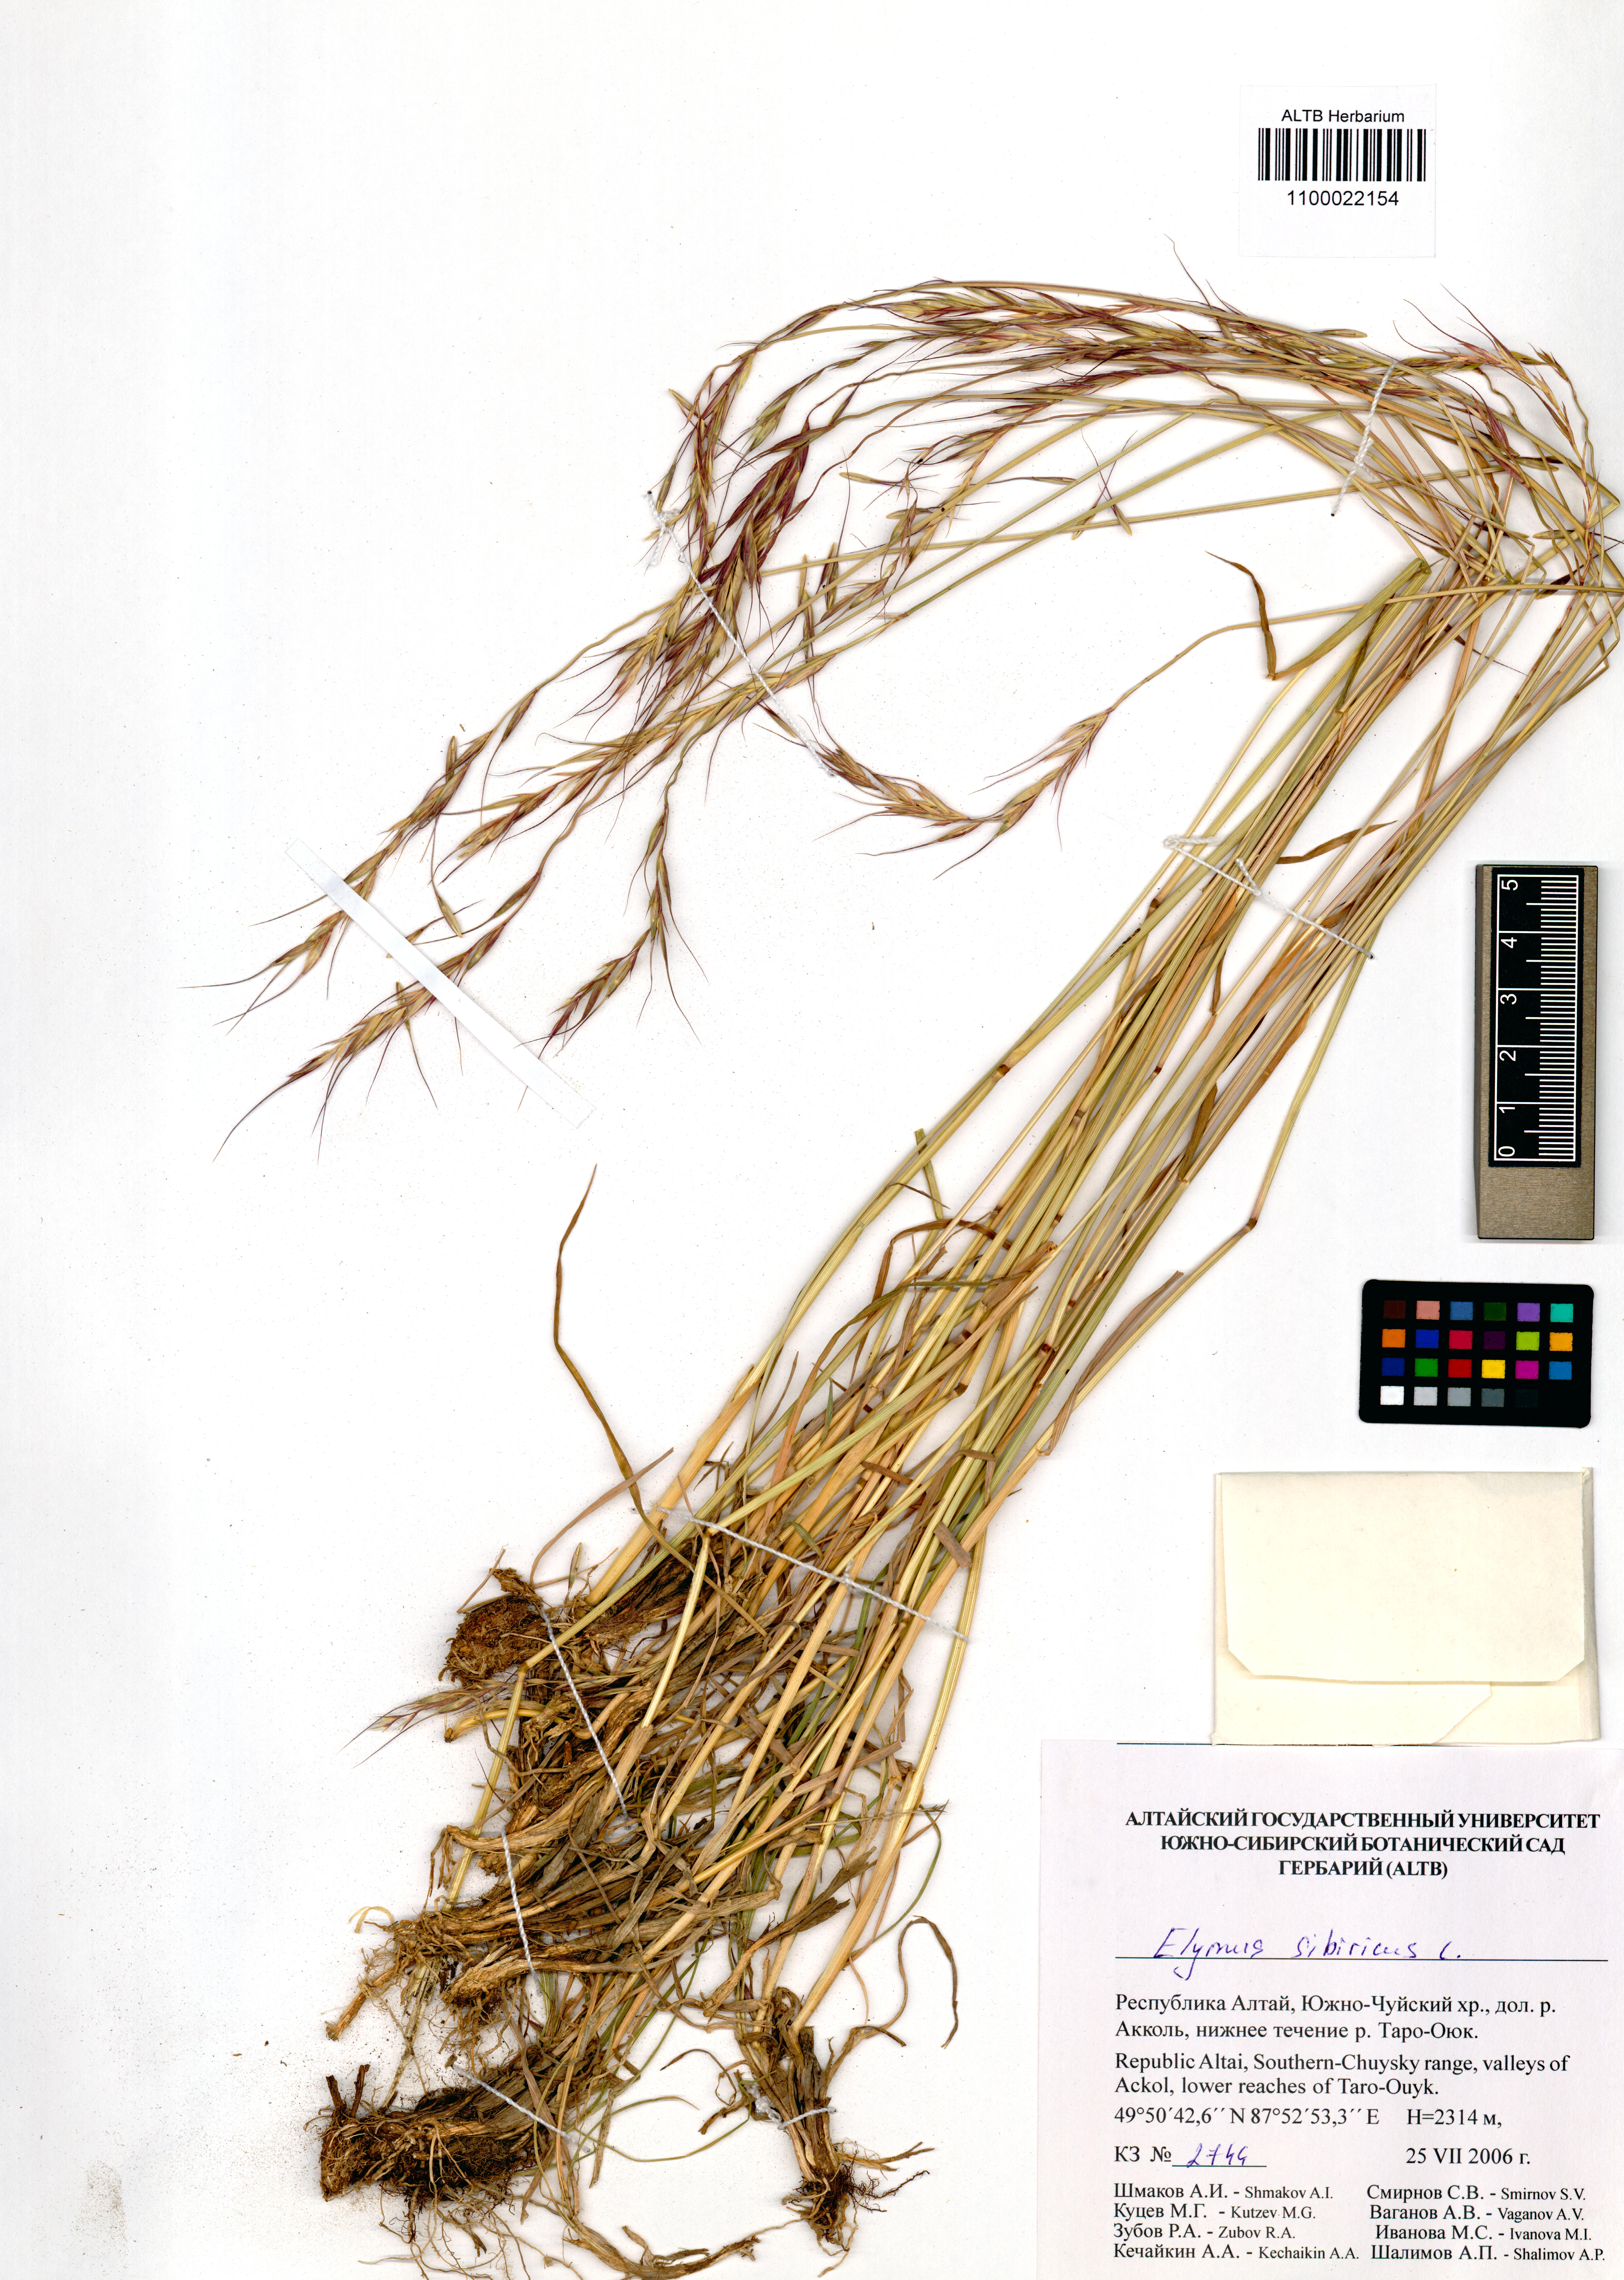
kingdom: Plantae
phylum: Tracheophyta
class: Liliopsida
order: Poales
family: Poaceae
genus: Elymus
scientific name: Elymus sibiricus
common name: Siberian wildrye
